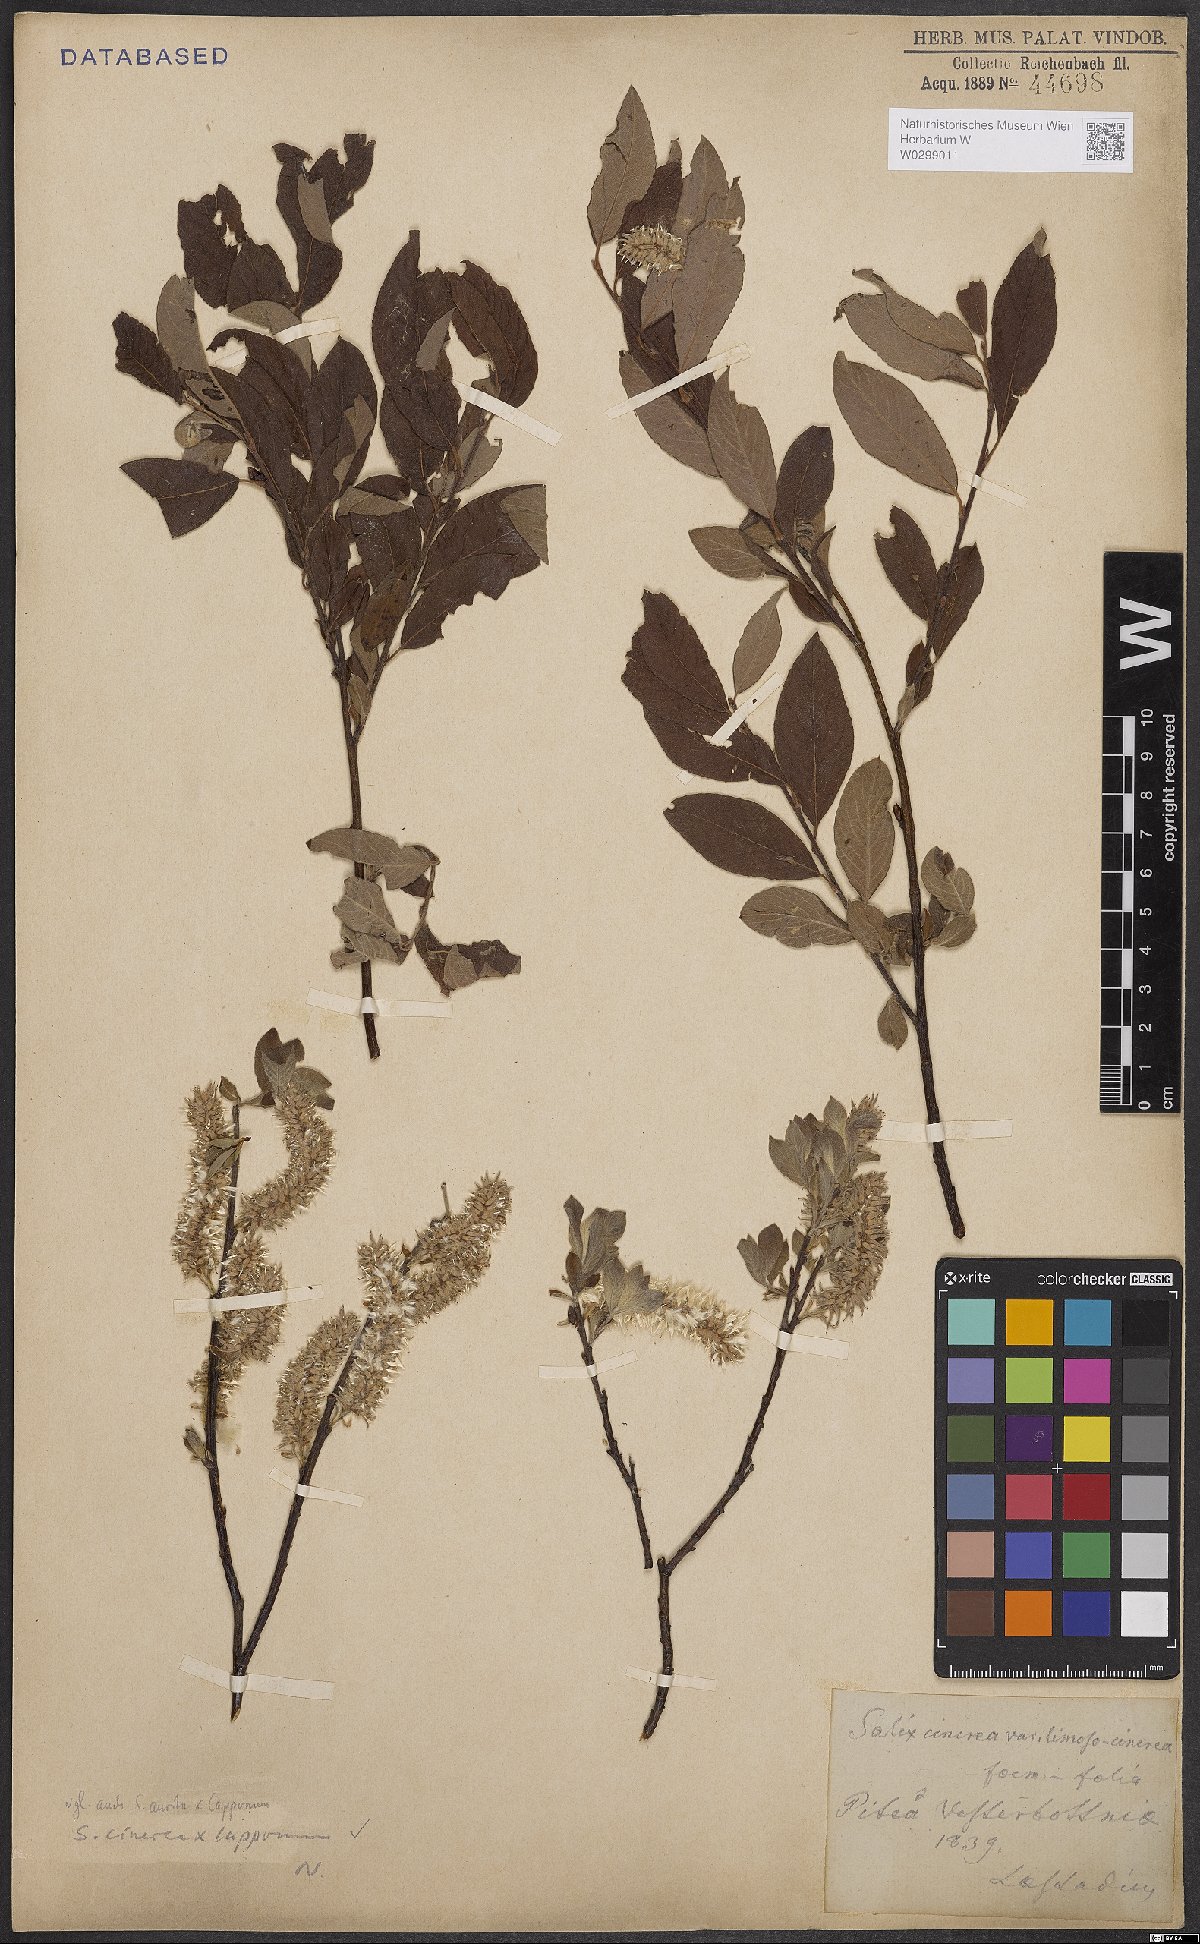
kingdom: Plantae
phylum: Tracheophyta
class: Magnoliopsida
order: Malpighiales
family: Salicaceae
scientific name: Salicaceae
